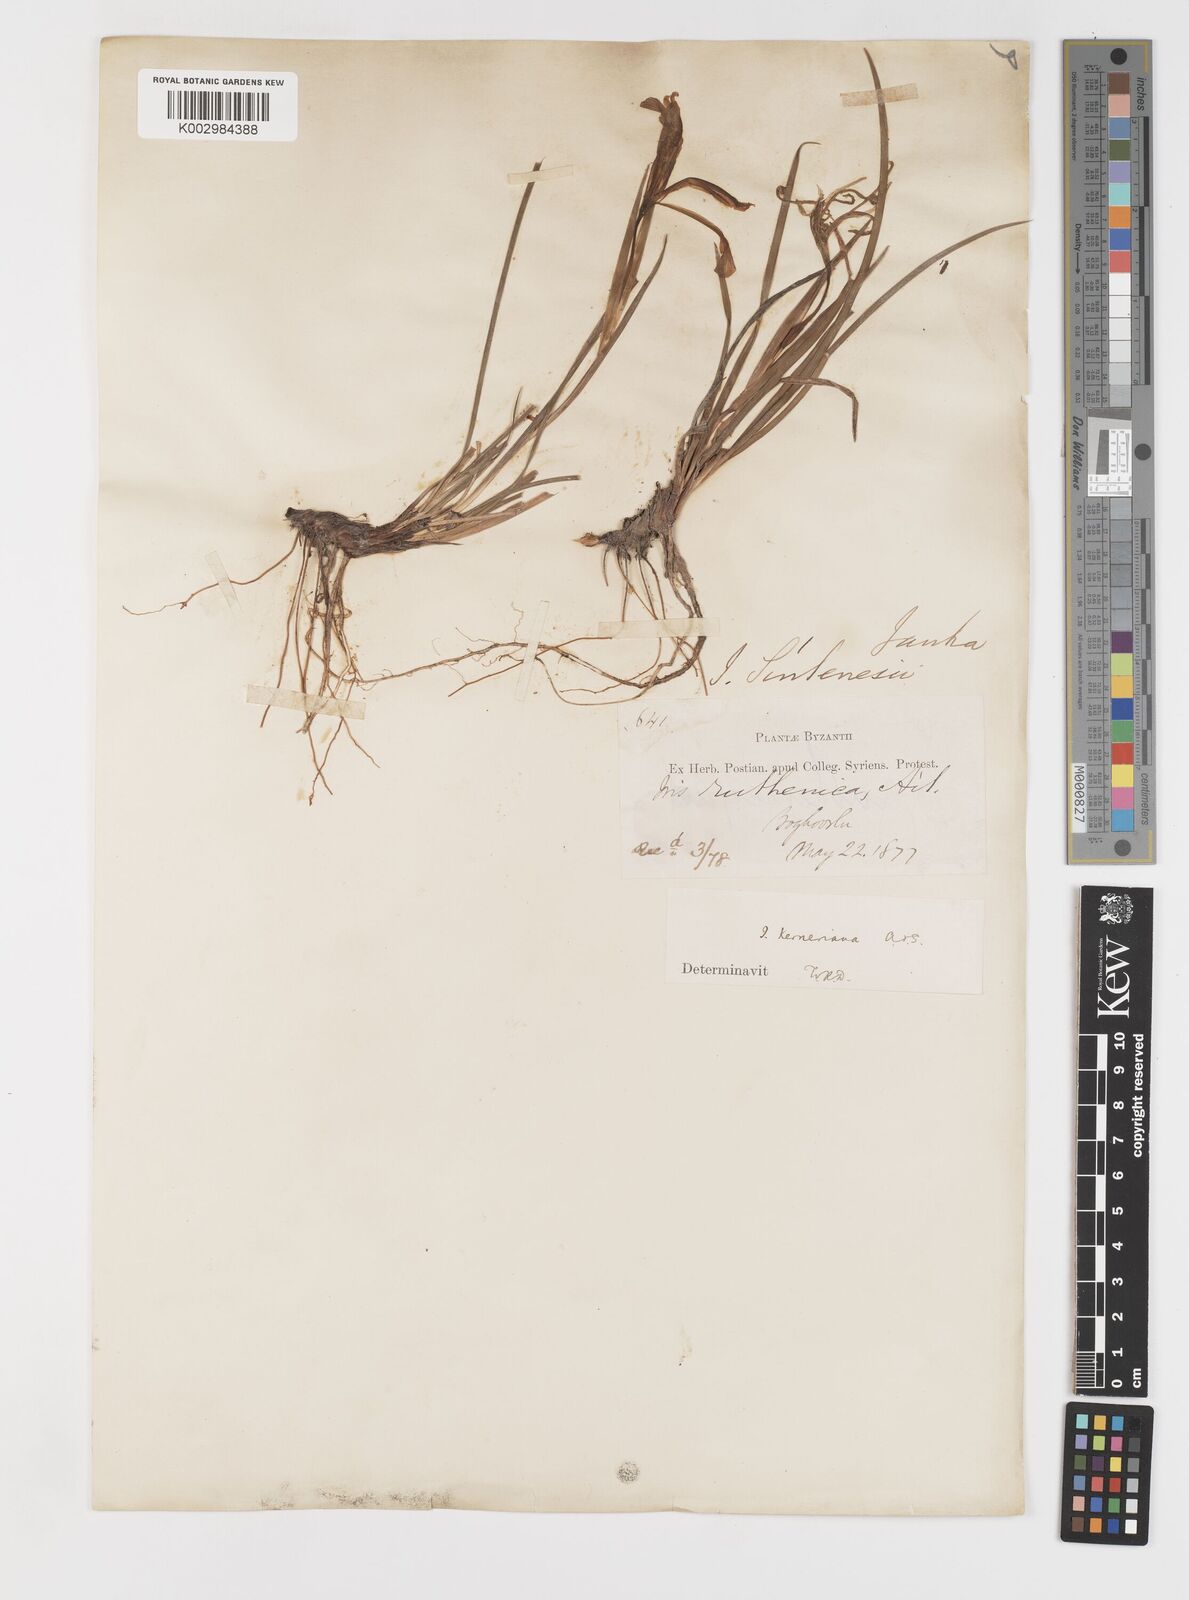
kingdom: Plantae
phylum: Tracheophyta
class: Liliopsida
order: Asparagales
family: Iridaceae
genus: Iris
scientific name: Iris sintenisii
